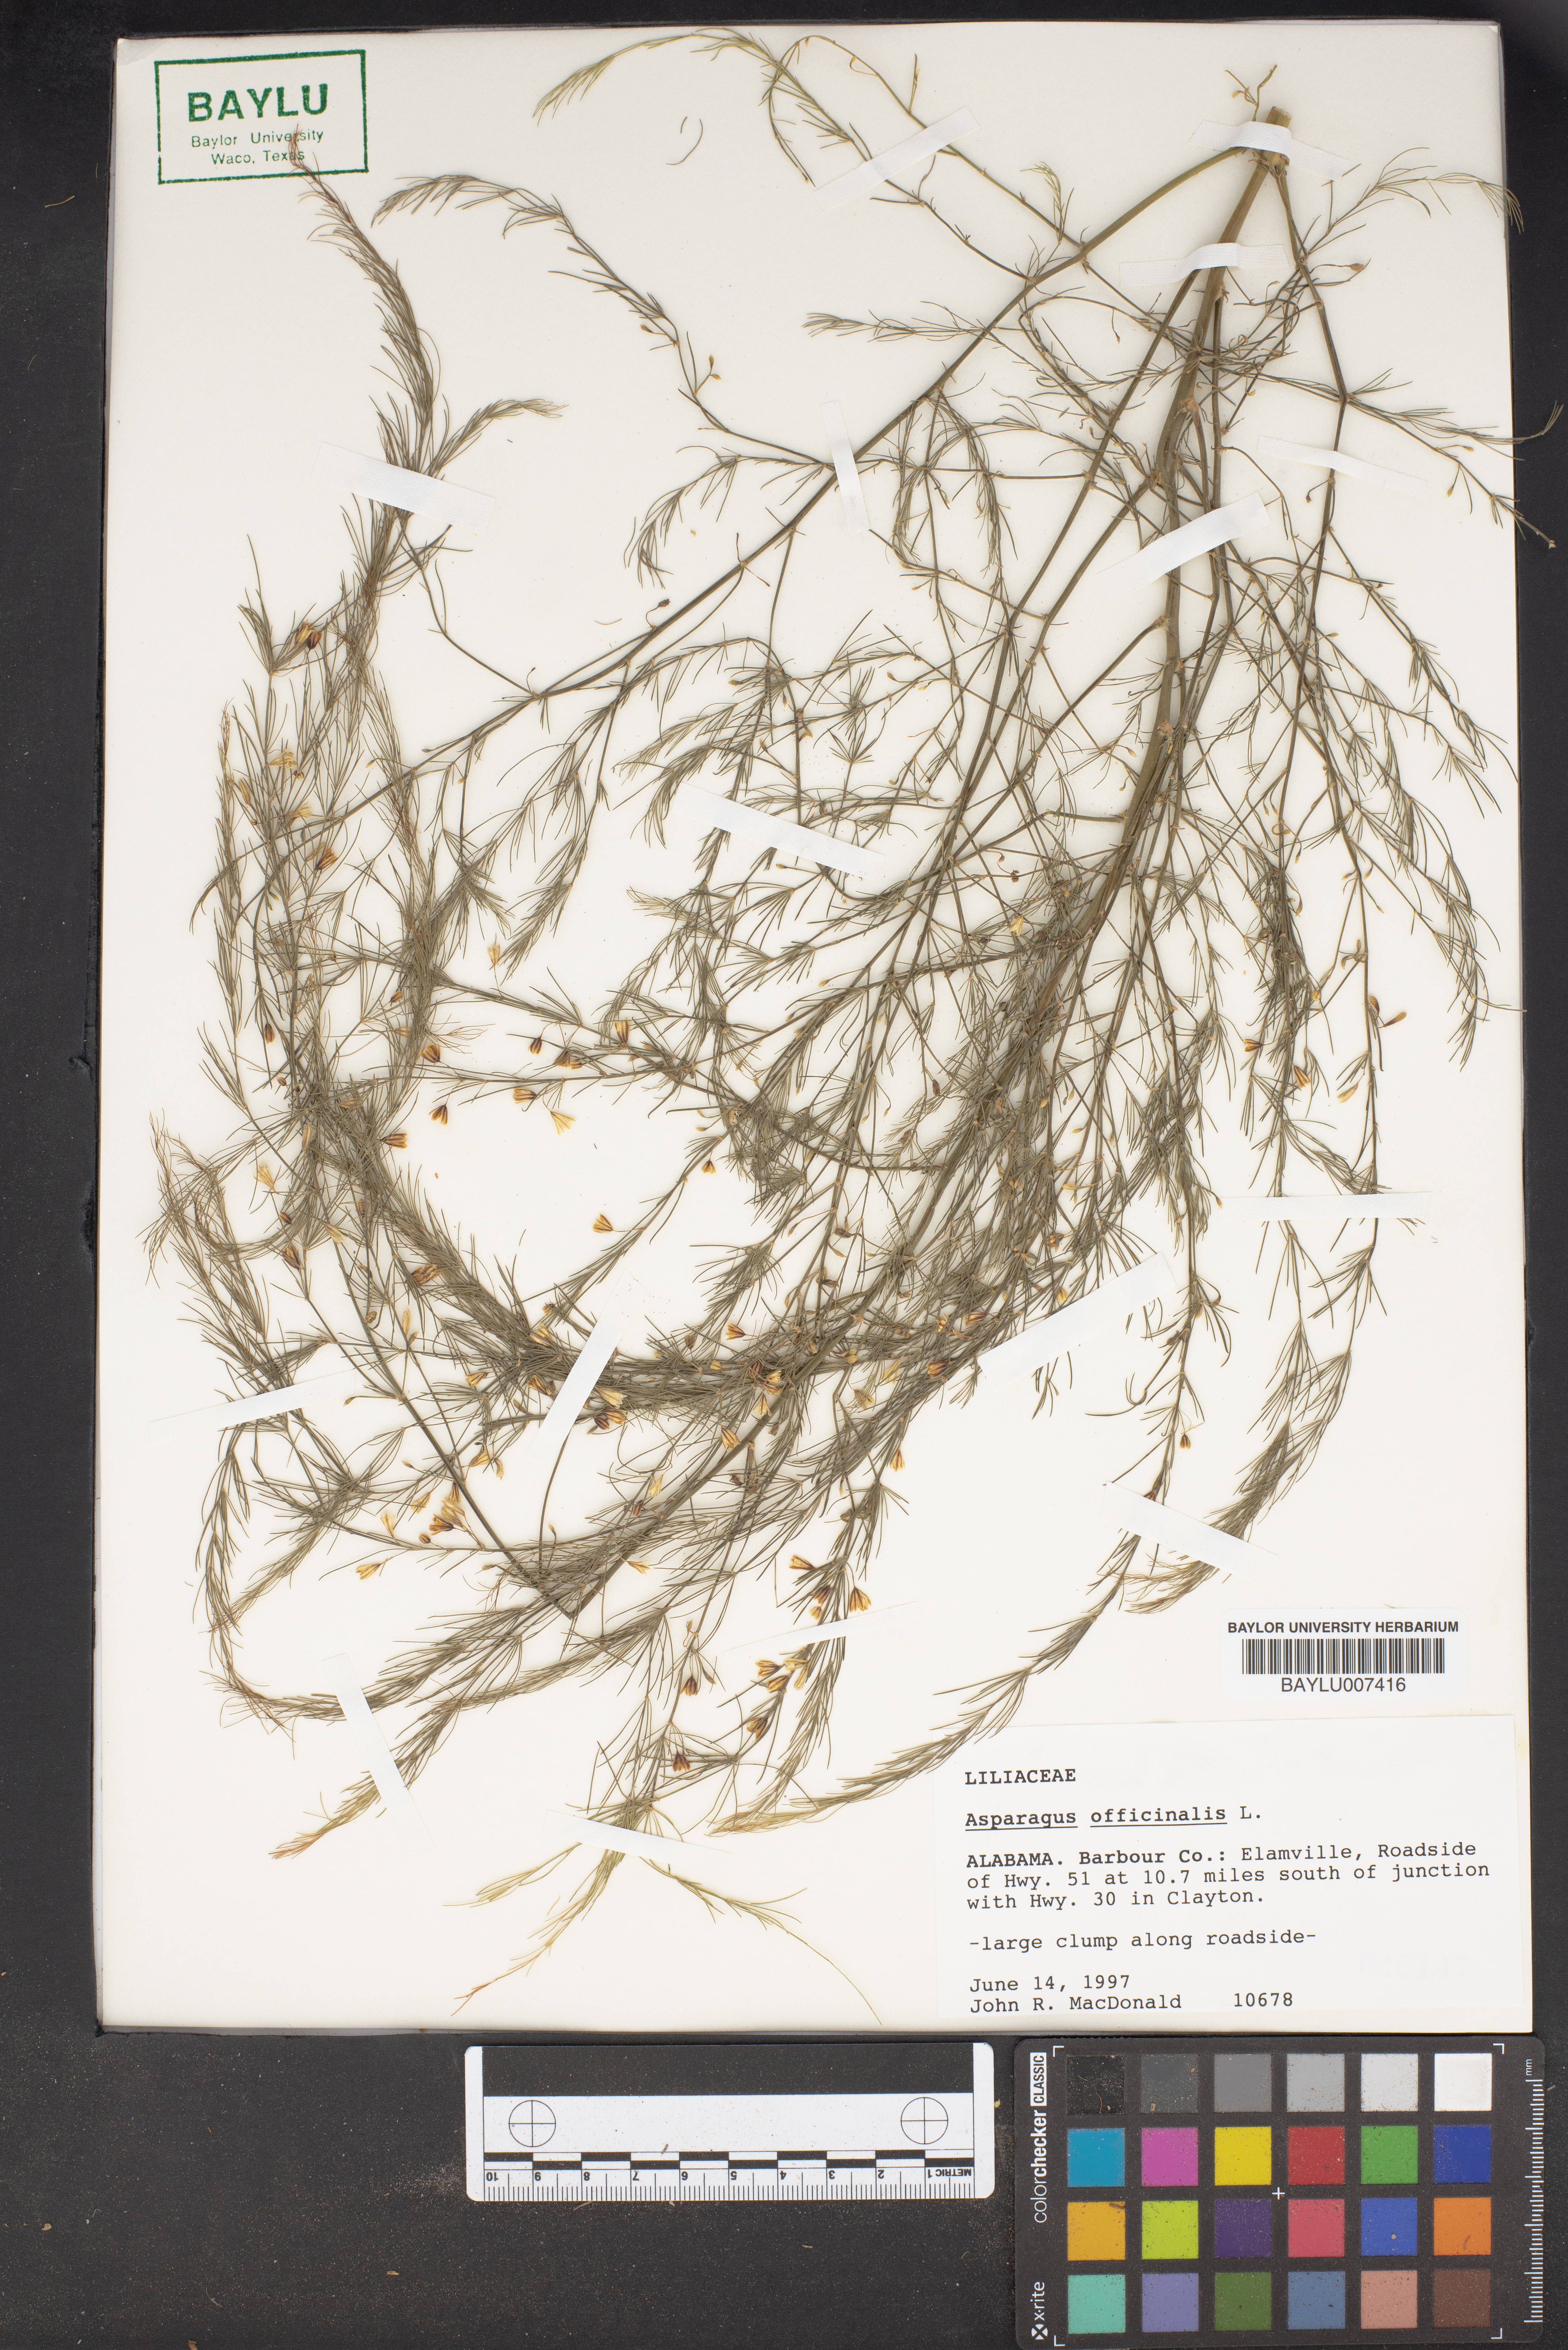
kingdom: Plantae
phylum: Tracheophyta
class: Liliopsida
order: Asparagales
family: Asparagaceae
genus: Asparagus
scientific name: Asparagus officinalis
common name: Garden asparagus
